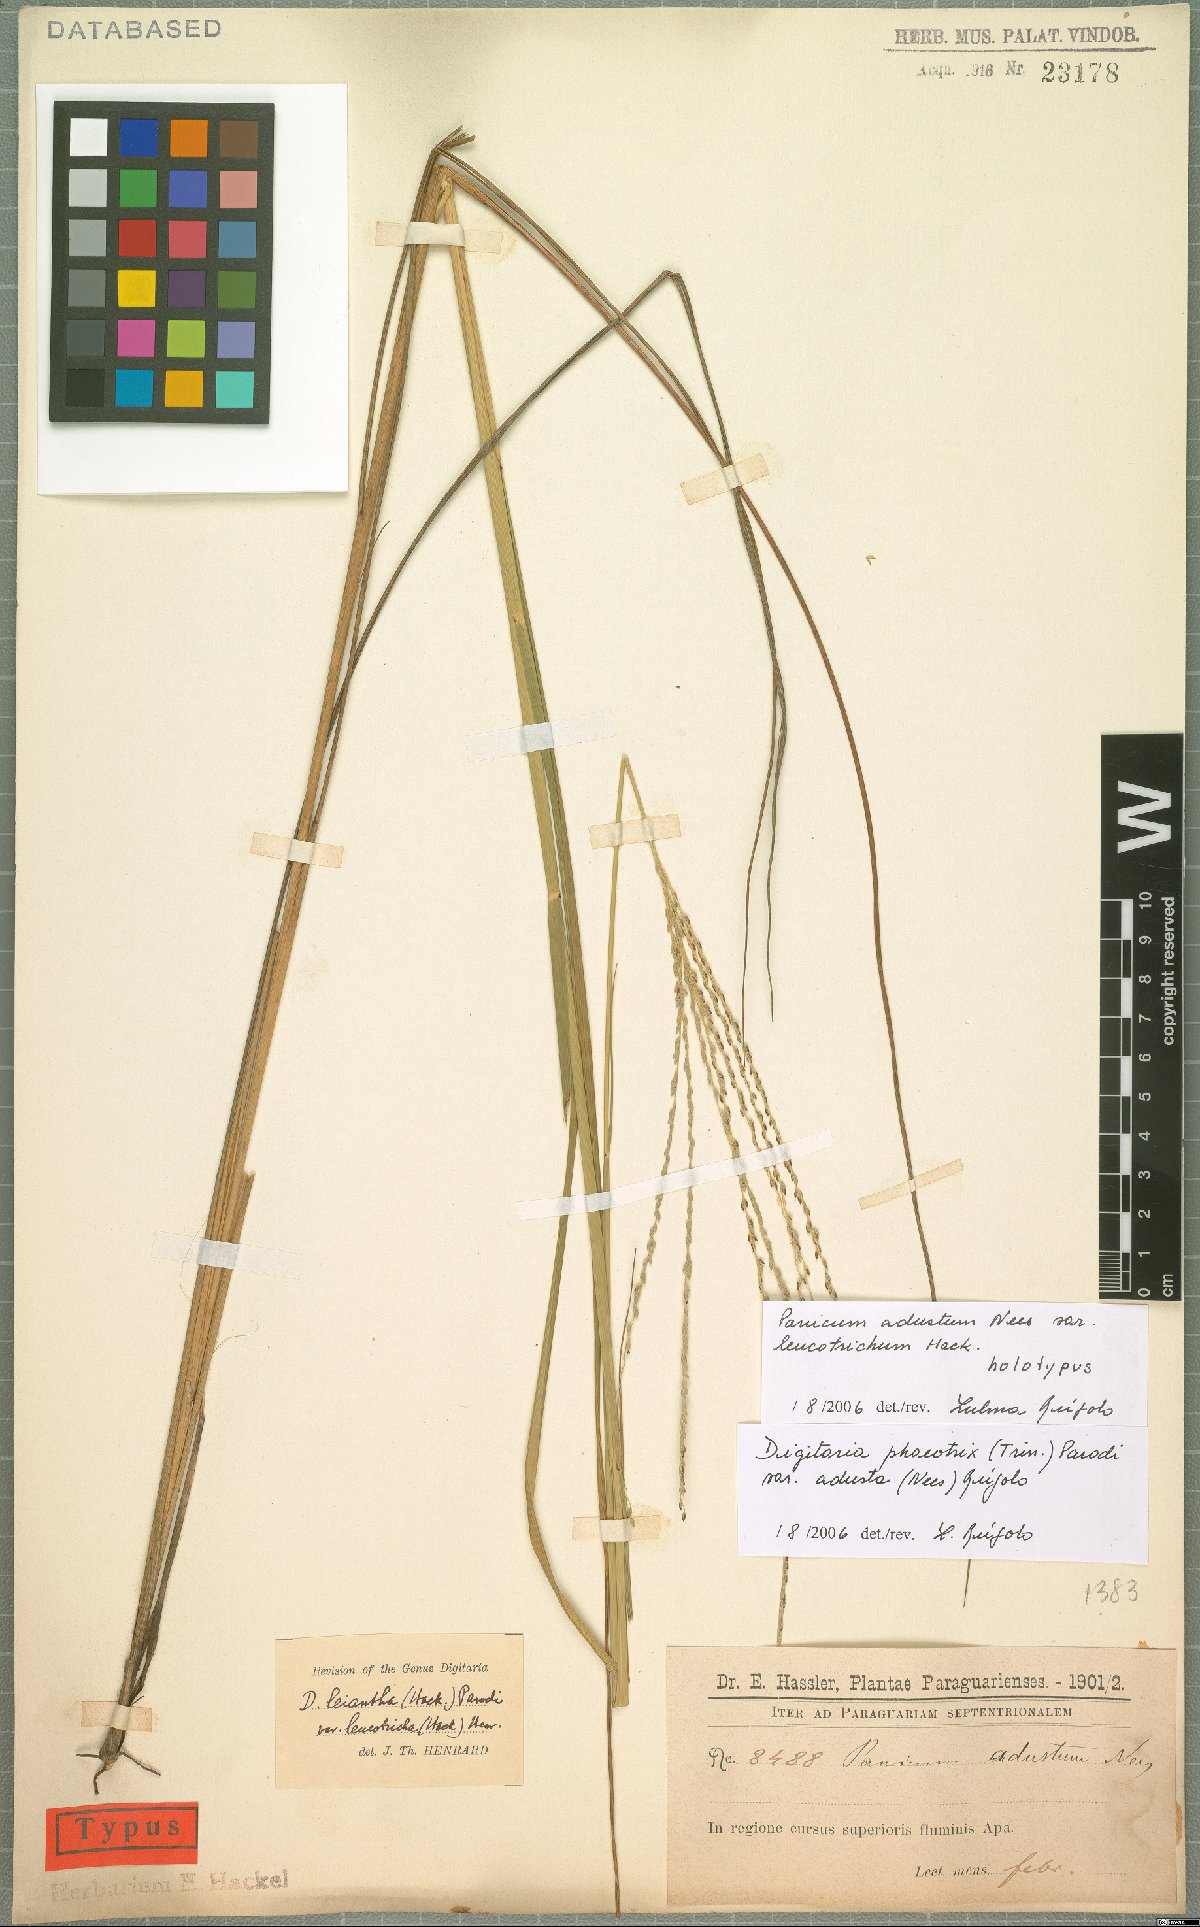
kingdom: Plantae
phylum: Tracheophyta
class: Liliopsida
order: Poales
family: Poaceae
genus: Digitaria
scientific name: Digitaria phaeothrix
